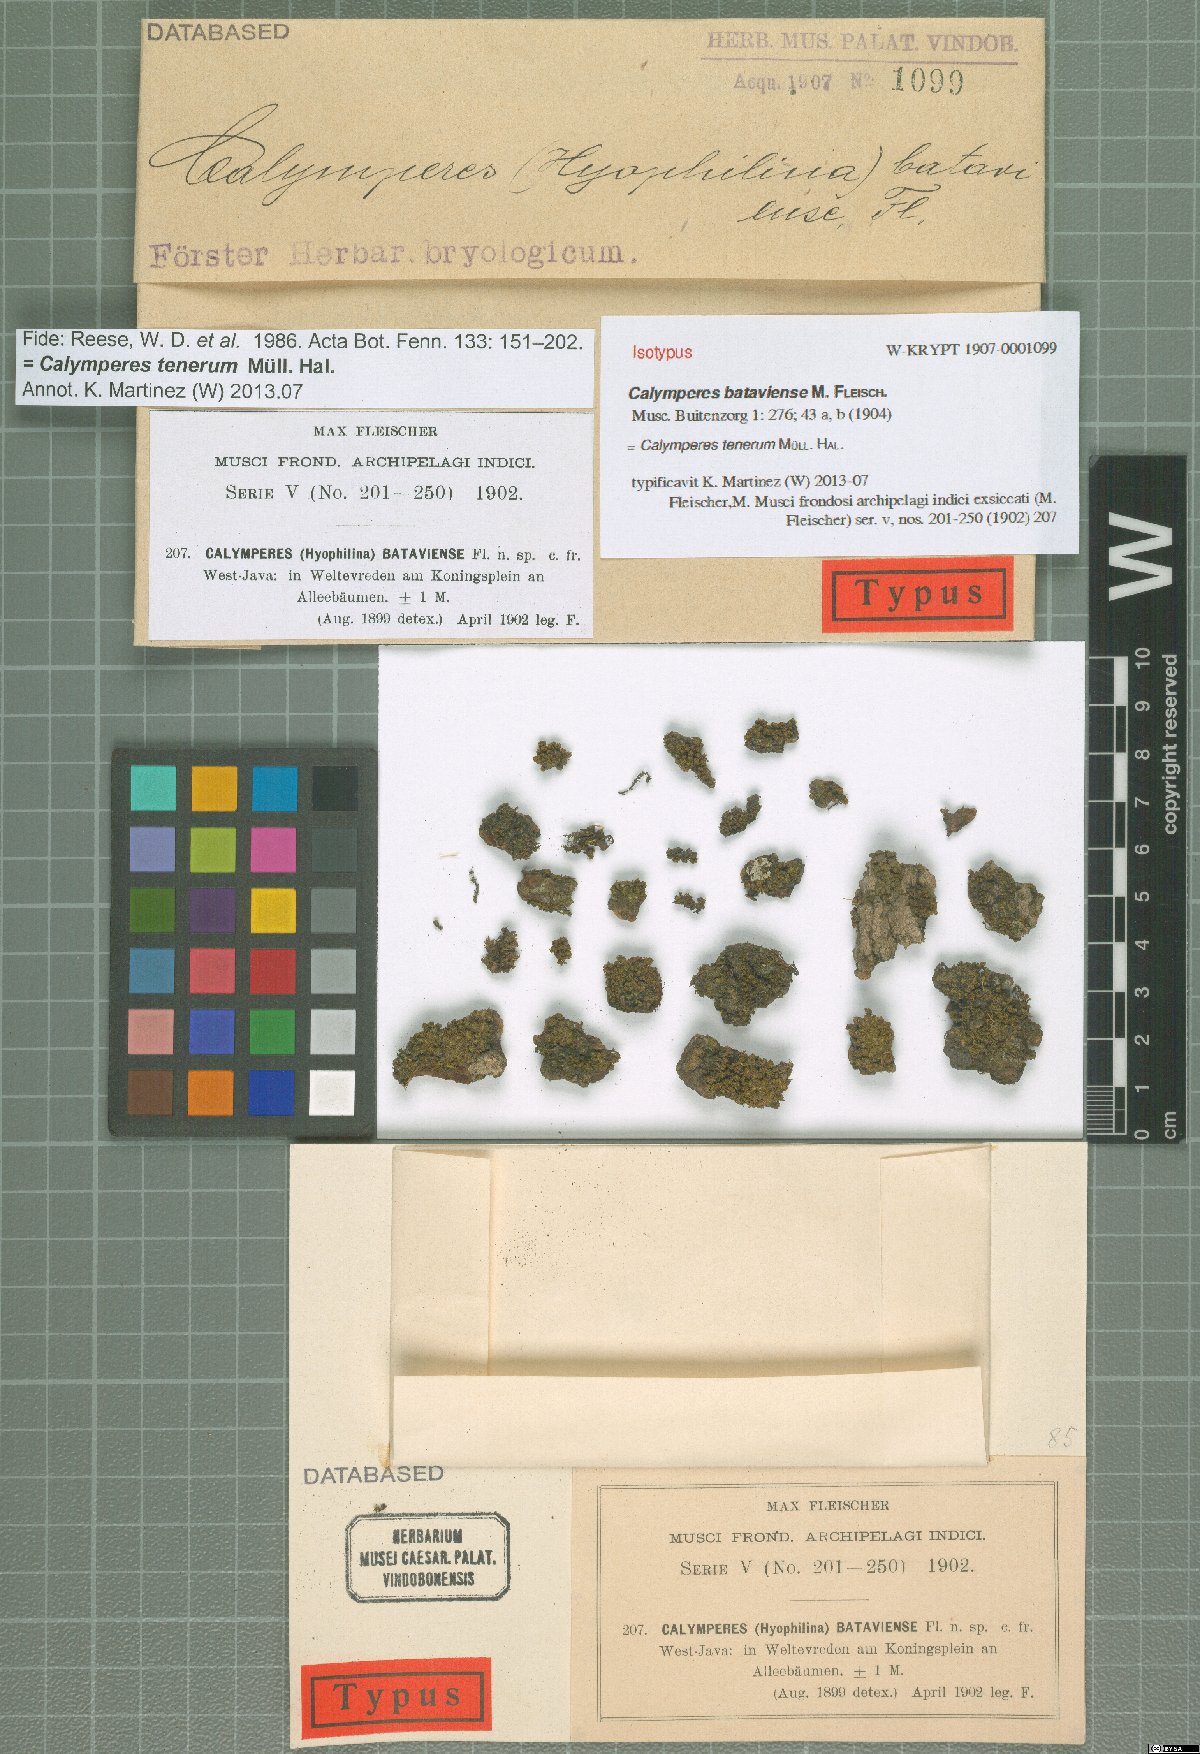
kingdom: Plantae
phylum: Bryophyta
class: Bryopsida
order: Dicranales
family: Calymperaceae
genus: Calymperes
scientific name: Calymperes tenerum
